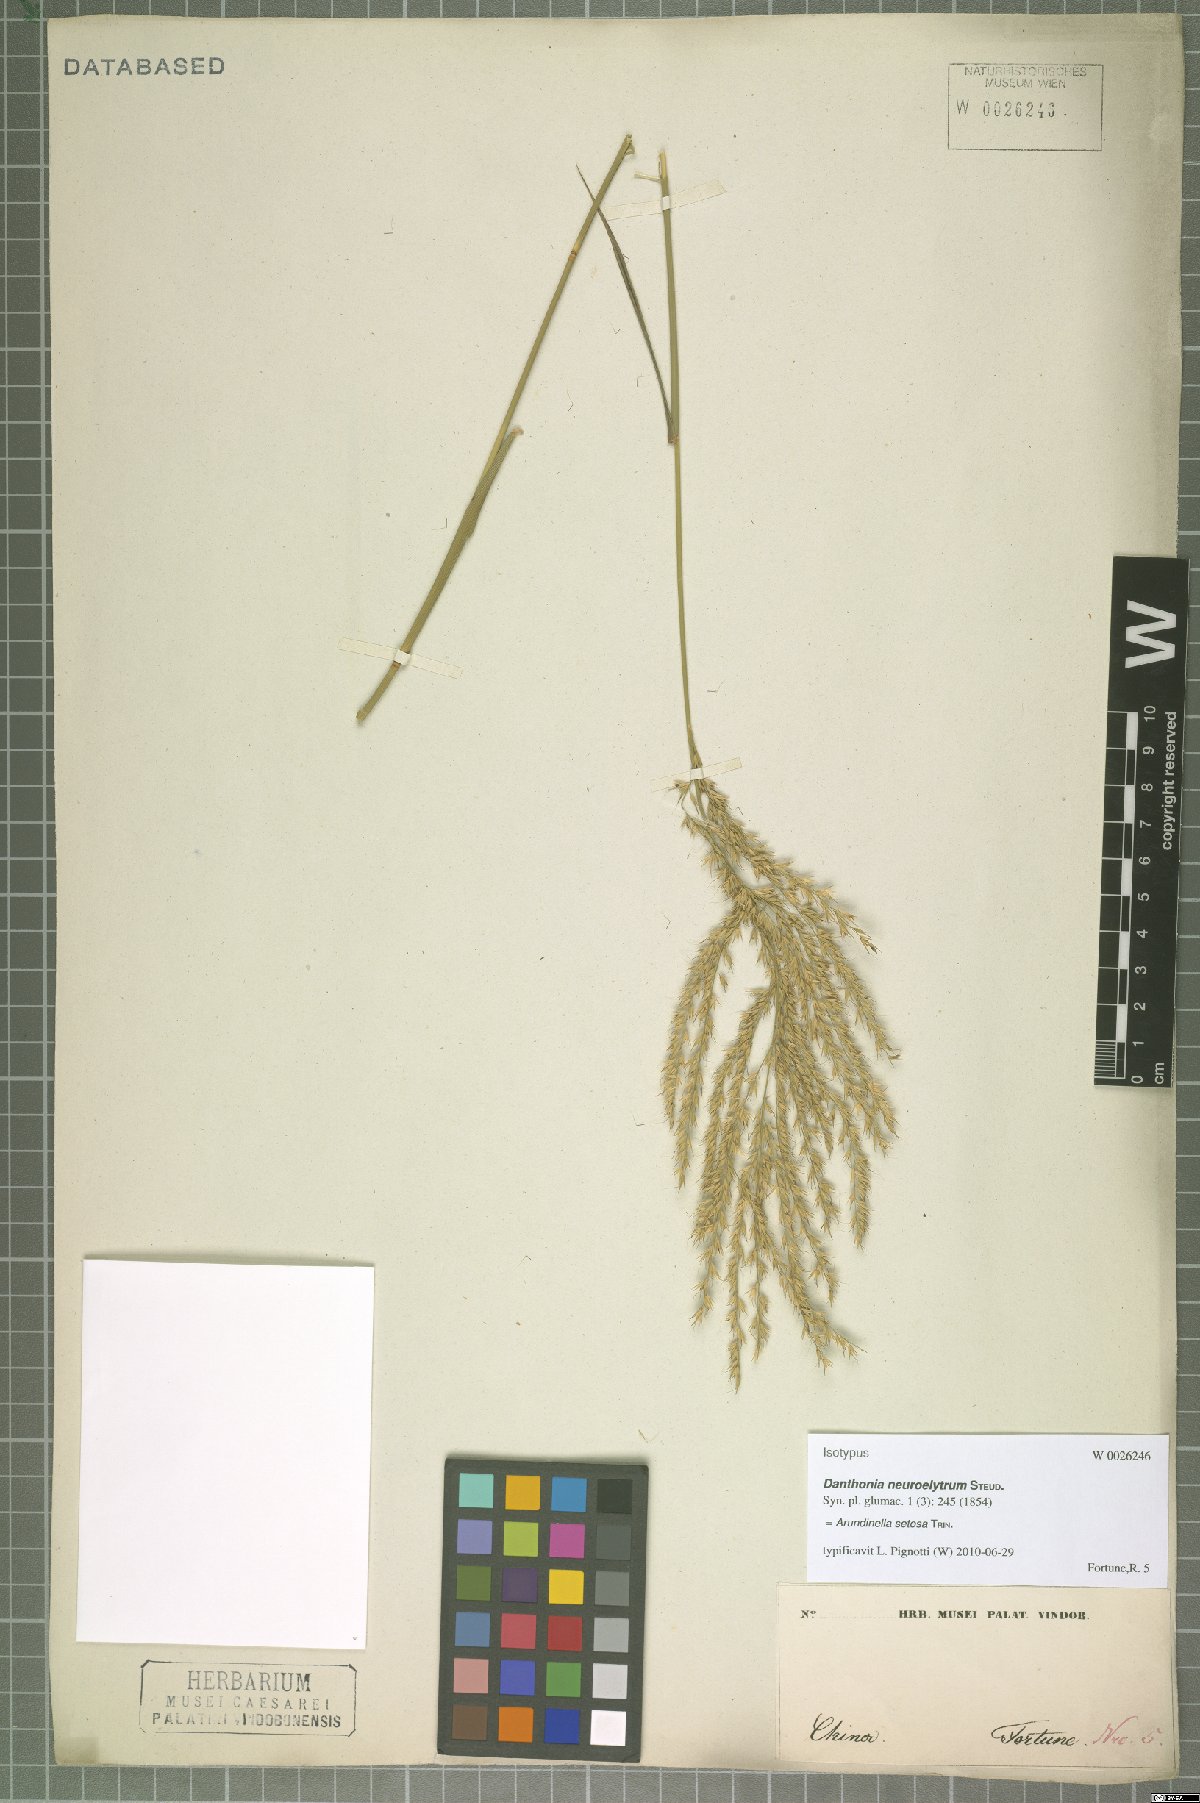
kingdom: Plantae
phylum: Tracheophyta
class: Liliopsida
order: Poales
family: Poaceae
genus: Arundinella
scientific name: Arundinella setosa
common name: Reed grass
